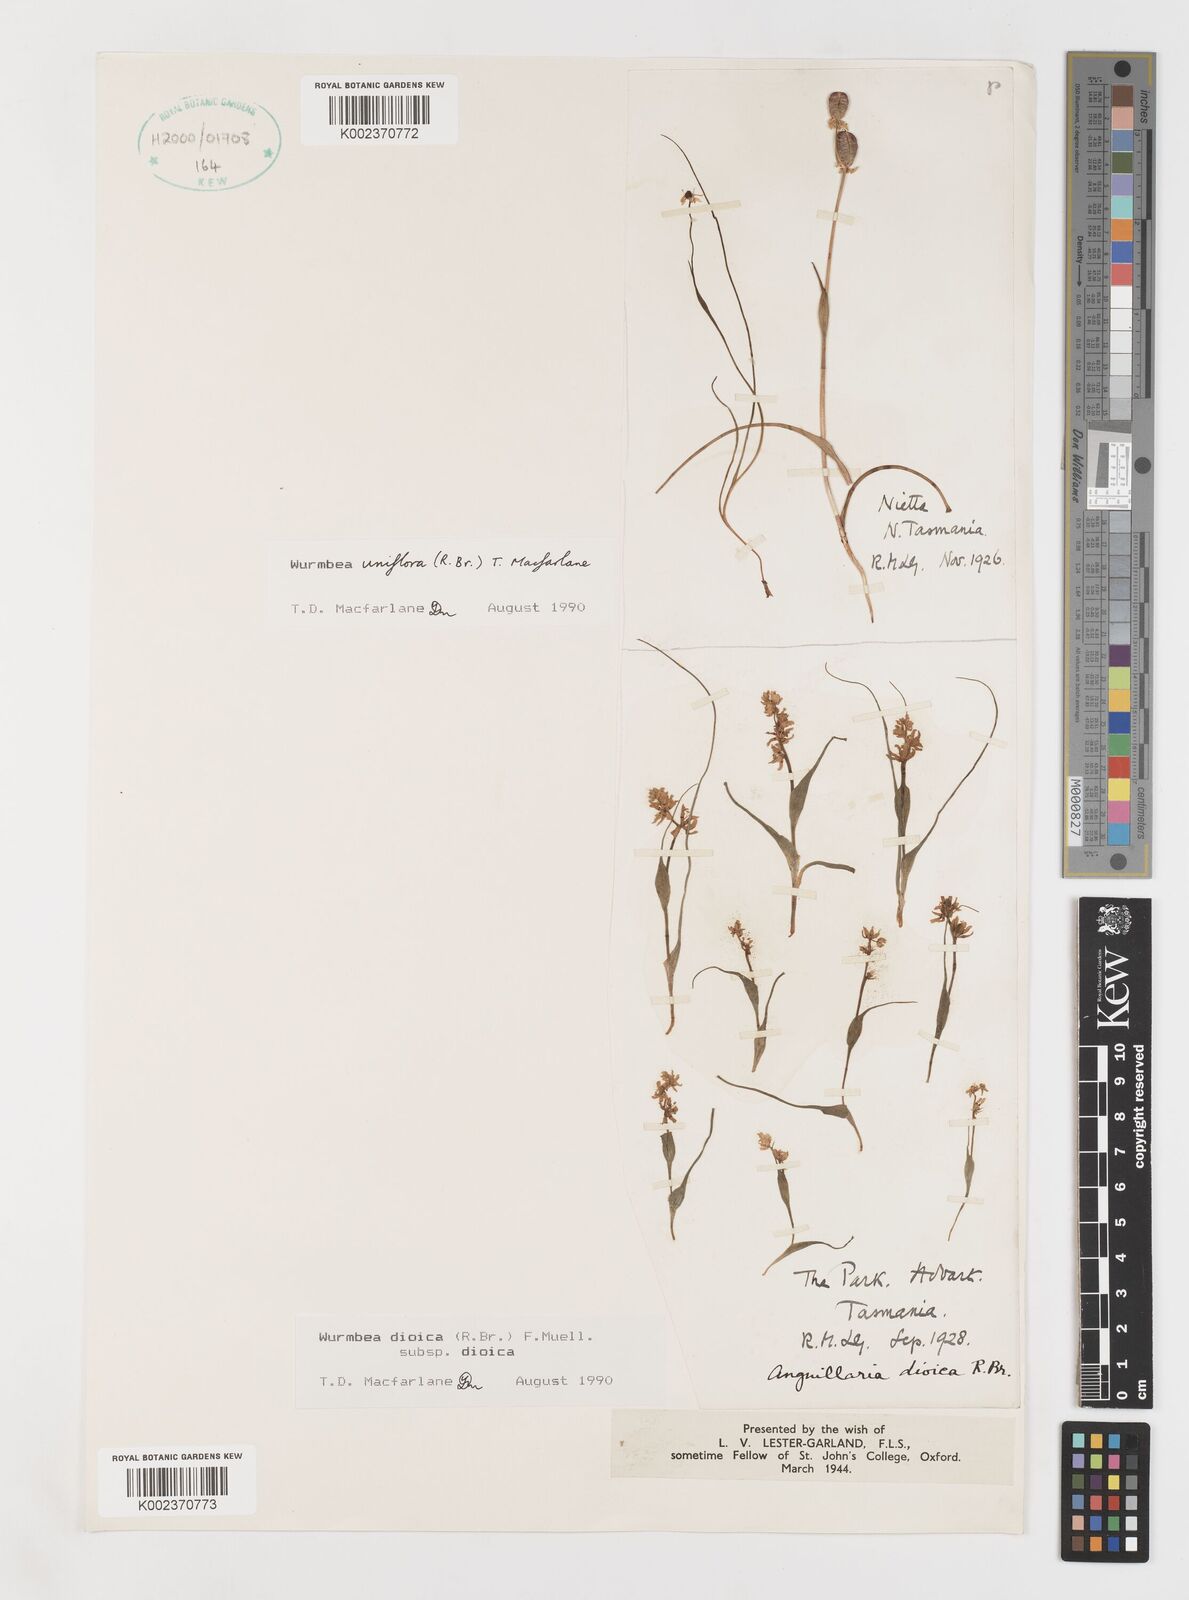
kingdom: Plantae
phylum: Tracheophyta
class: Liliopsida
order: Liliales
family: Colchicaceae
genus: Wurmbea
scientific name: Wurmbea uniflora
